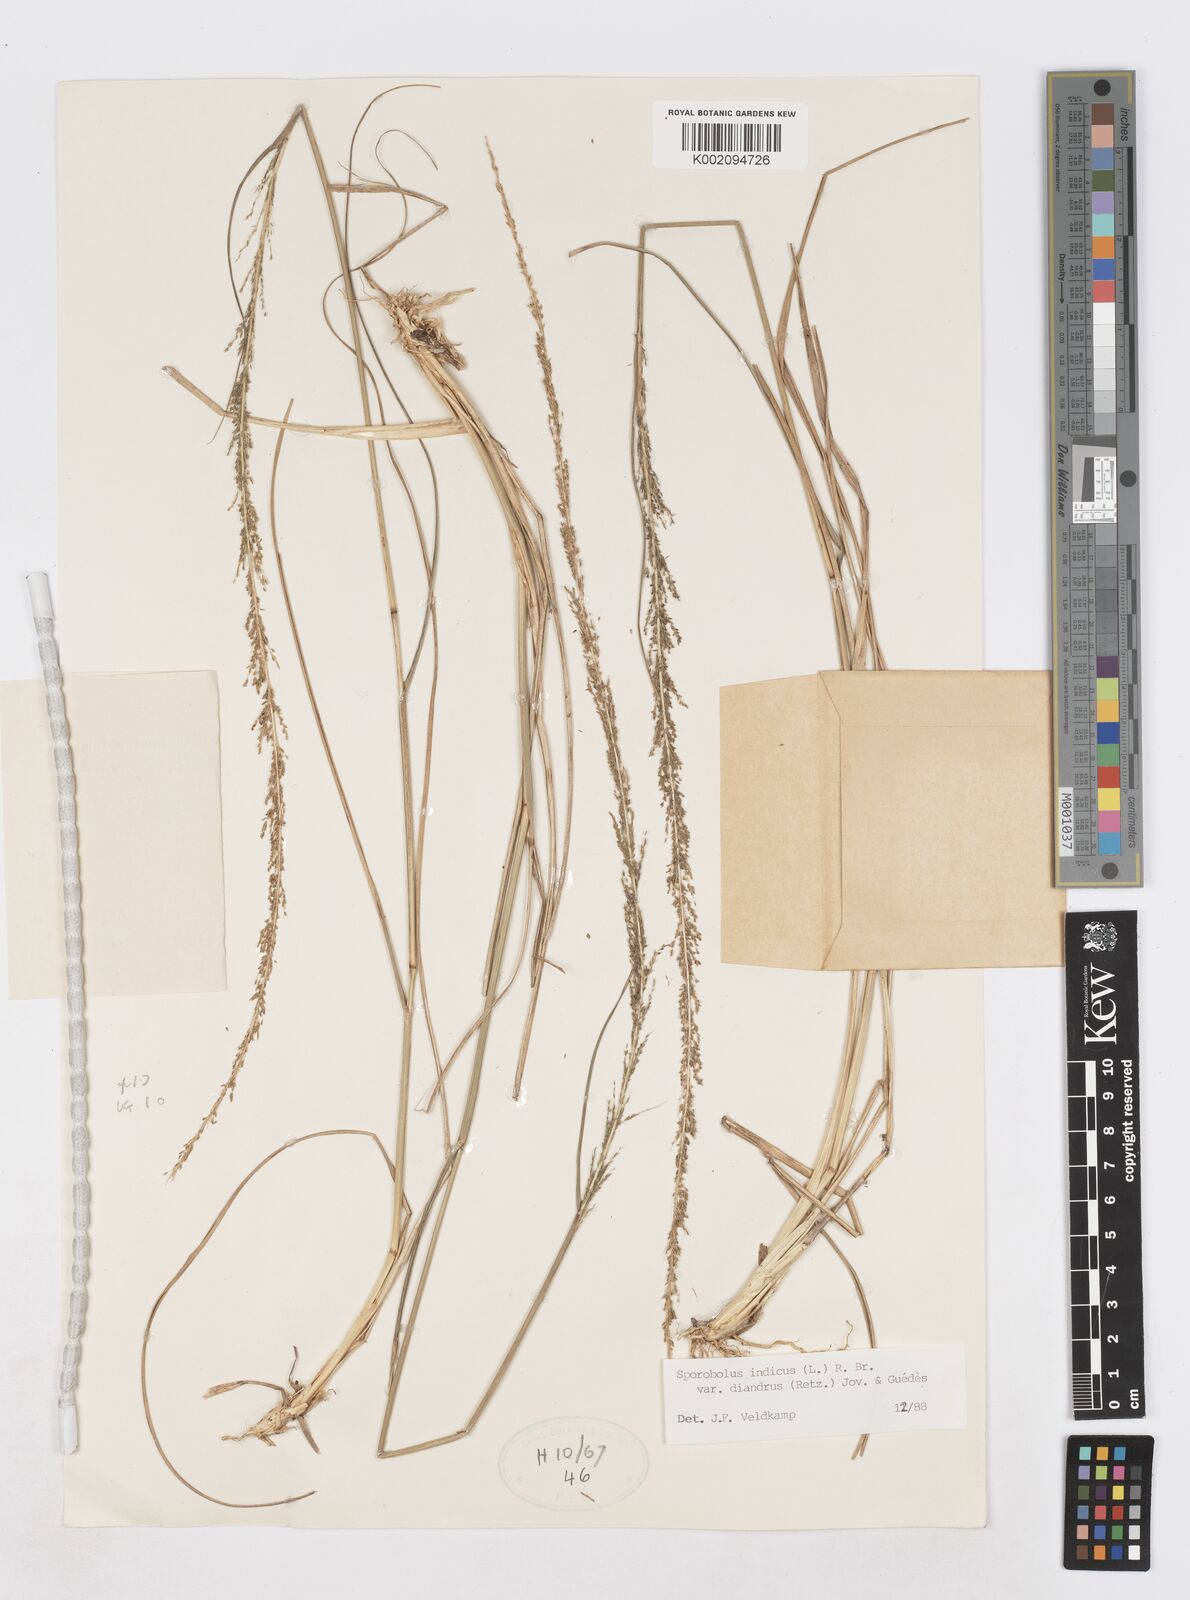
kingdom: Plantae
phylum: Tracheophyta
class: Liliopsida
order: Poales
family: Poaceae
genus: Sporobolus
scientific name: Sporobolus diandrus
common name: Tussock dropseed
